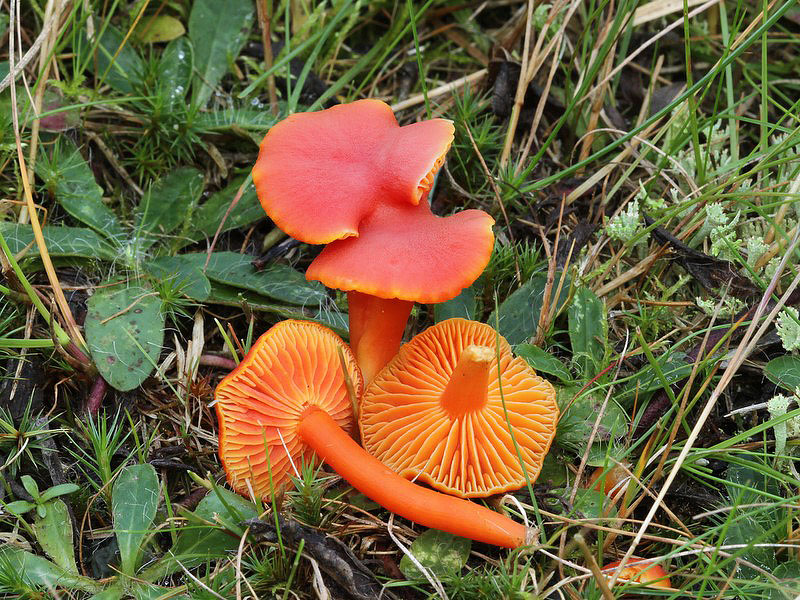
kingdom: Fungi
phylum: Basidiomycota
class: Agaricomycetes
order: Agaricales
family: Hygrophoraceae
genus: Hygrocybe
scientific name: Hygrocybe miniata
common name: mønje-vokshat
